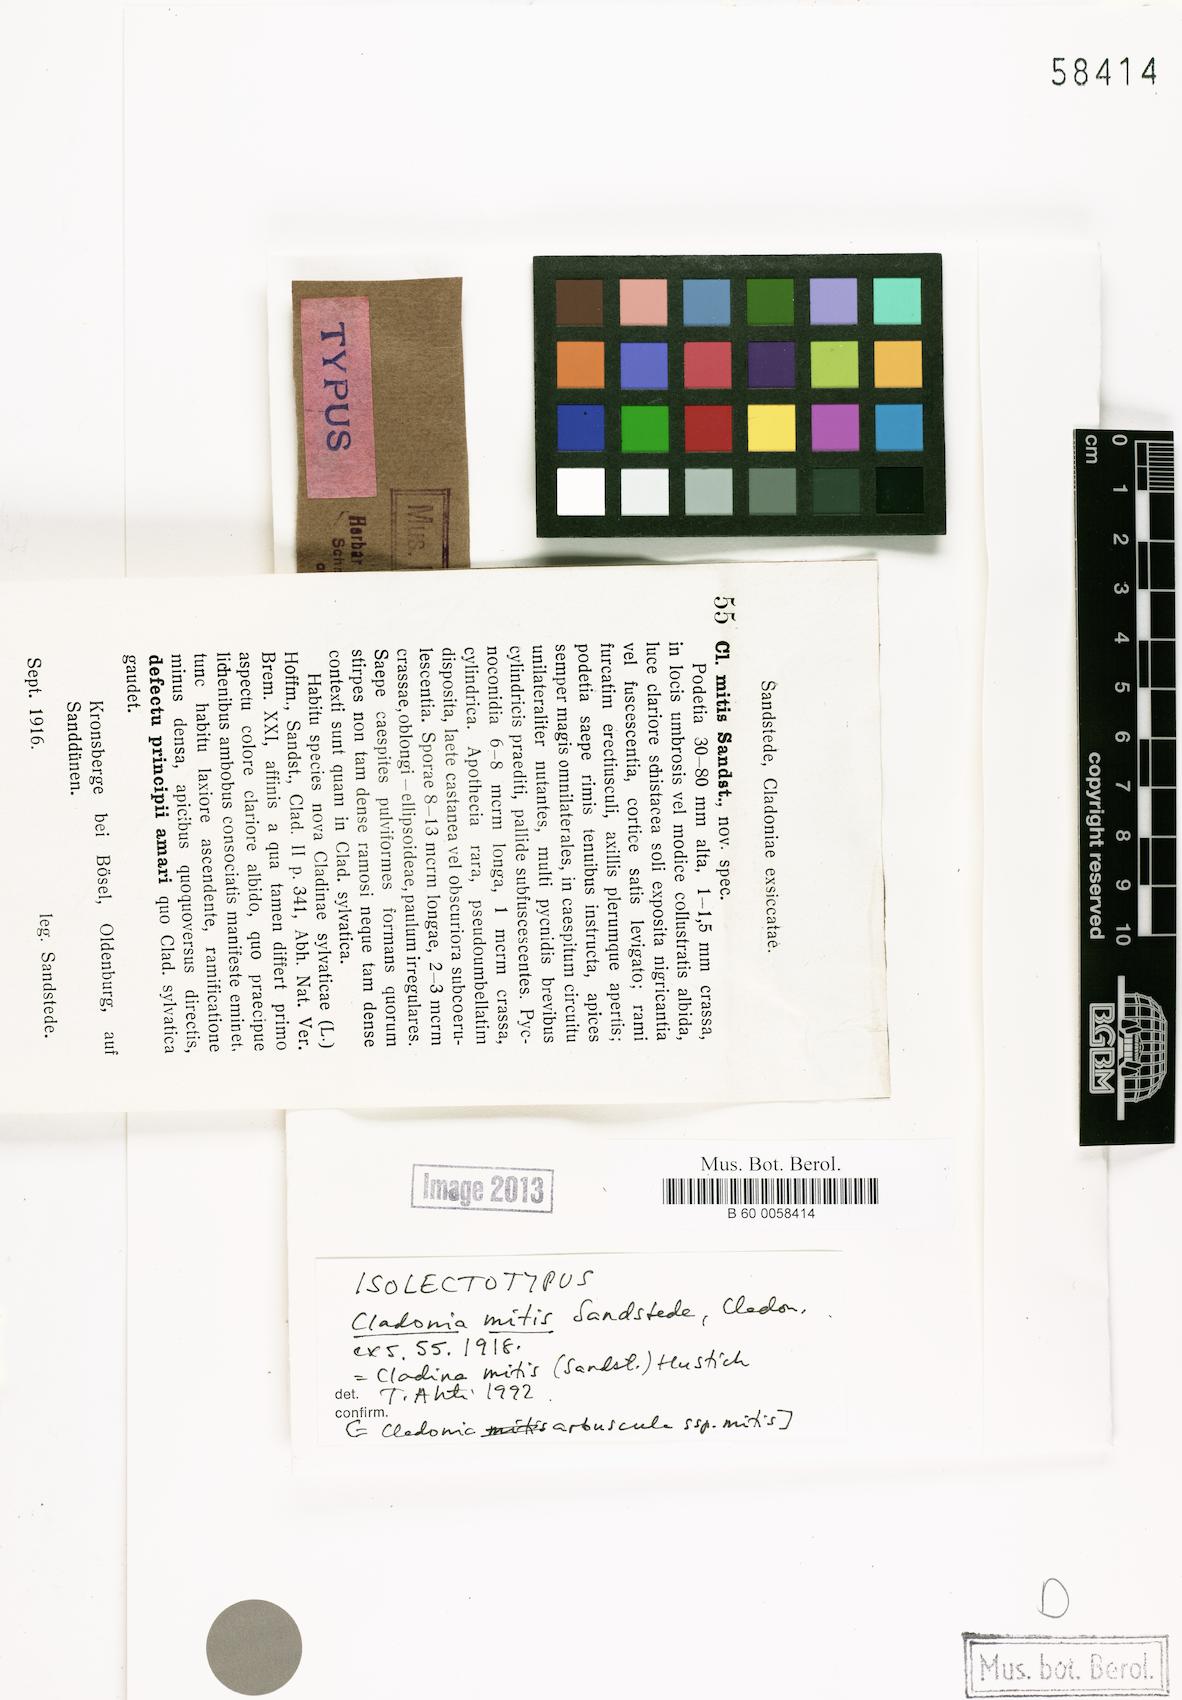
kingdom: Fungi
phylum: Ascomycota
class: Lecanoromycetes
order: Lecanorales
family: Cladoniaceae
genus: Cladonia
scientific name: Cladonia mitis
